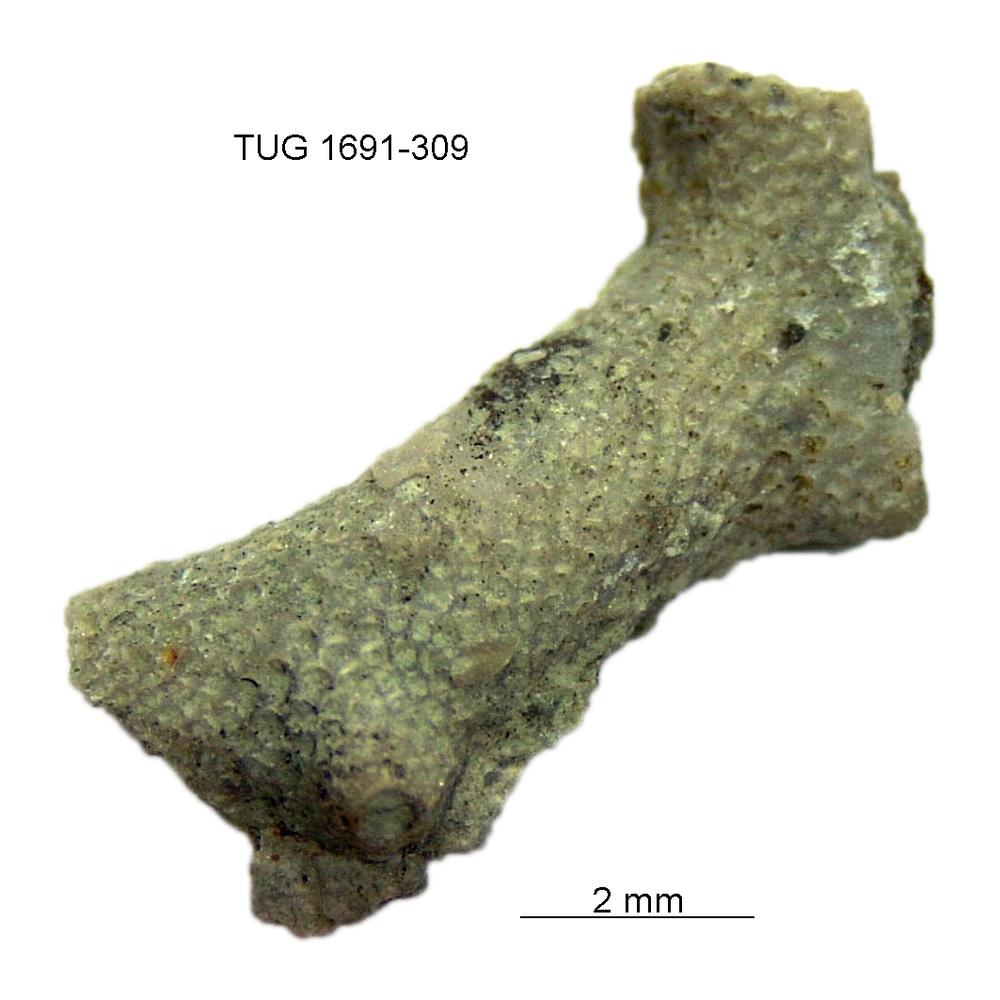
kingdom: Animalia
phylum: Bryozoa
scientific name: Bryozoa
